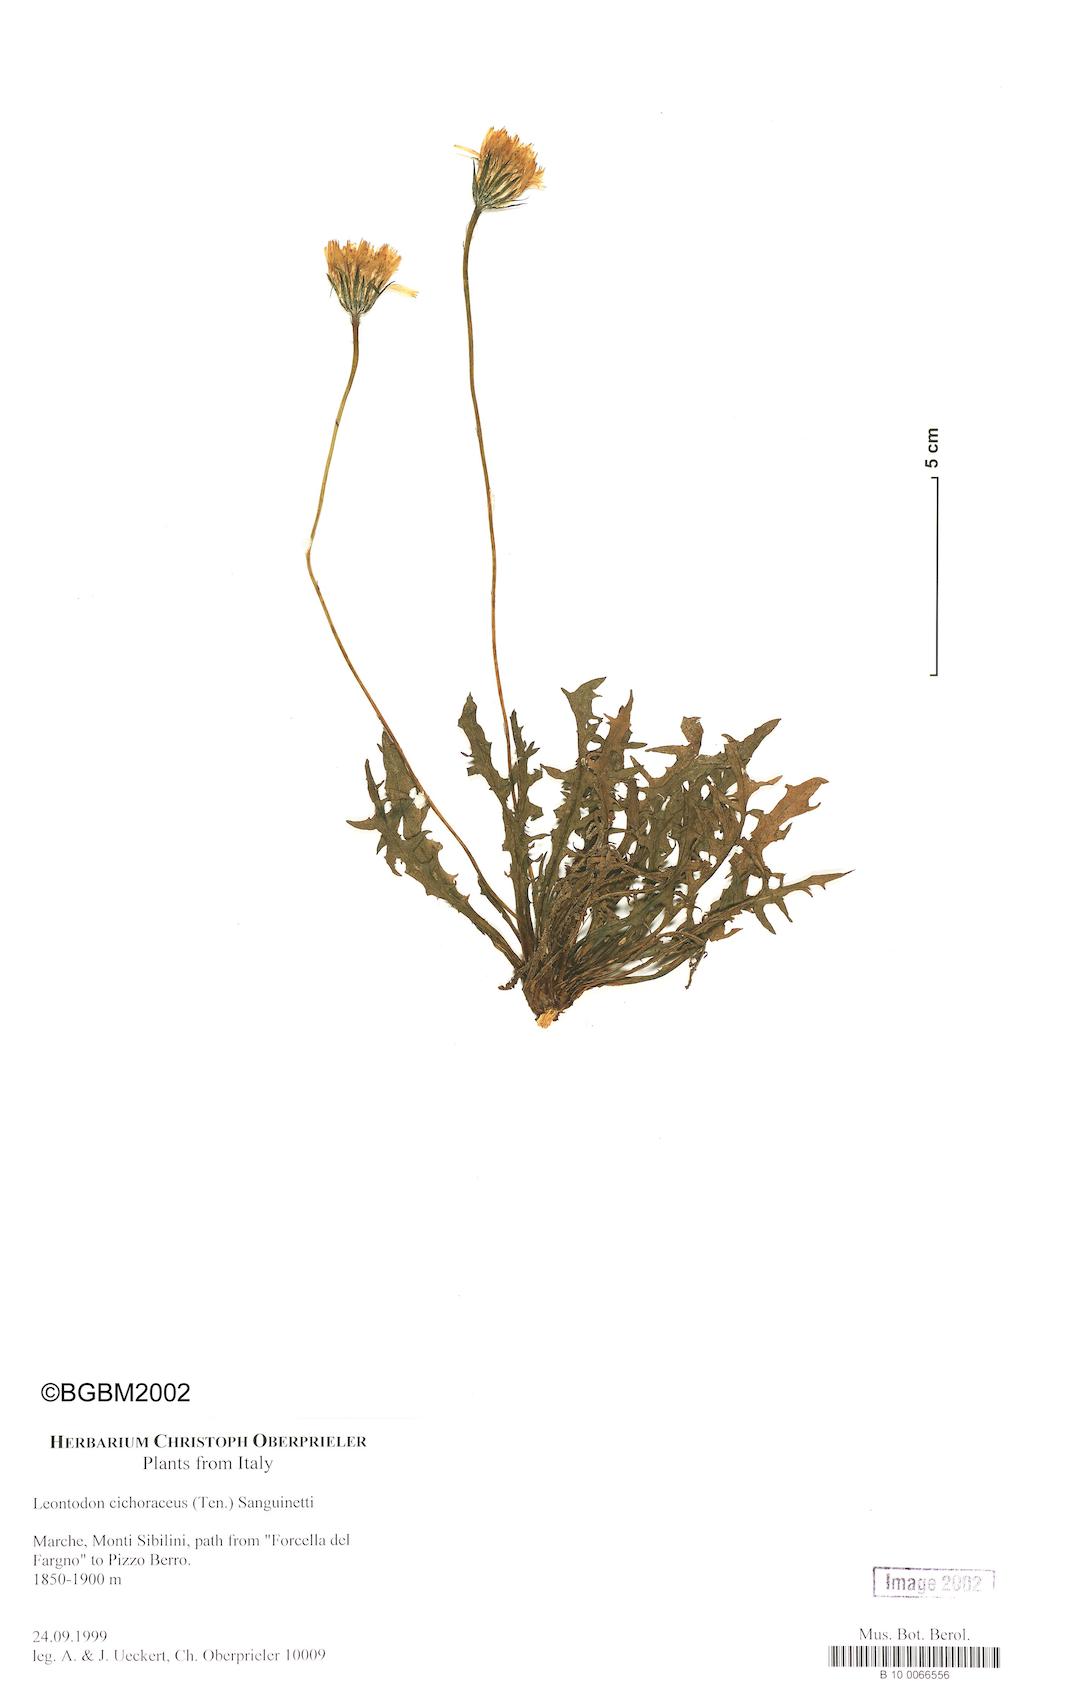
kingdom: Plantae
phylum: Tracheophyta
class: Magnoliopsida
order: Asterales
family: Asteraceae
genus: Scorzoneroides
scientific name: Scorzoneroides cichoriacea
